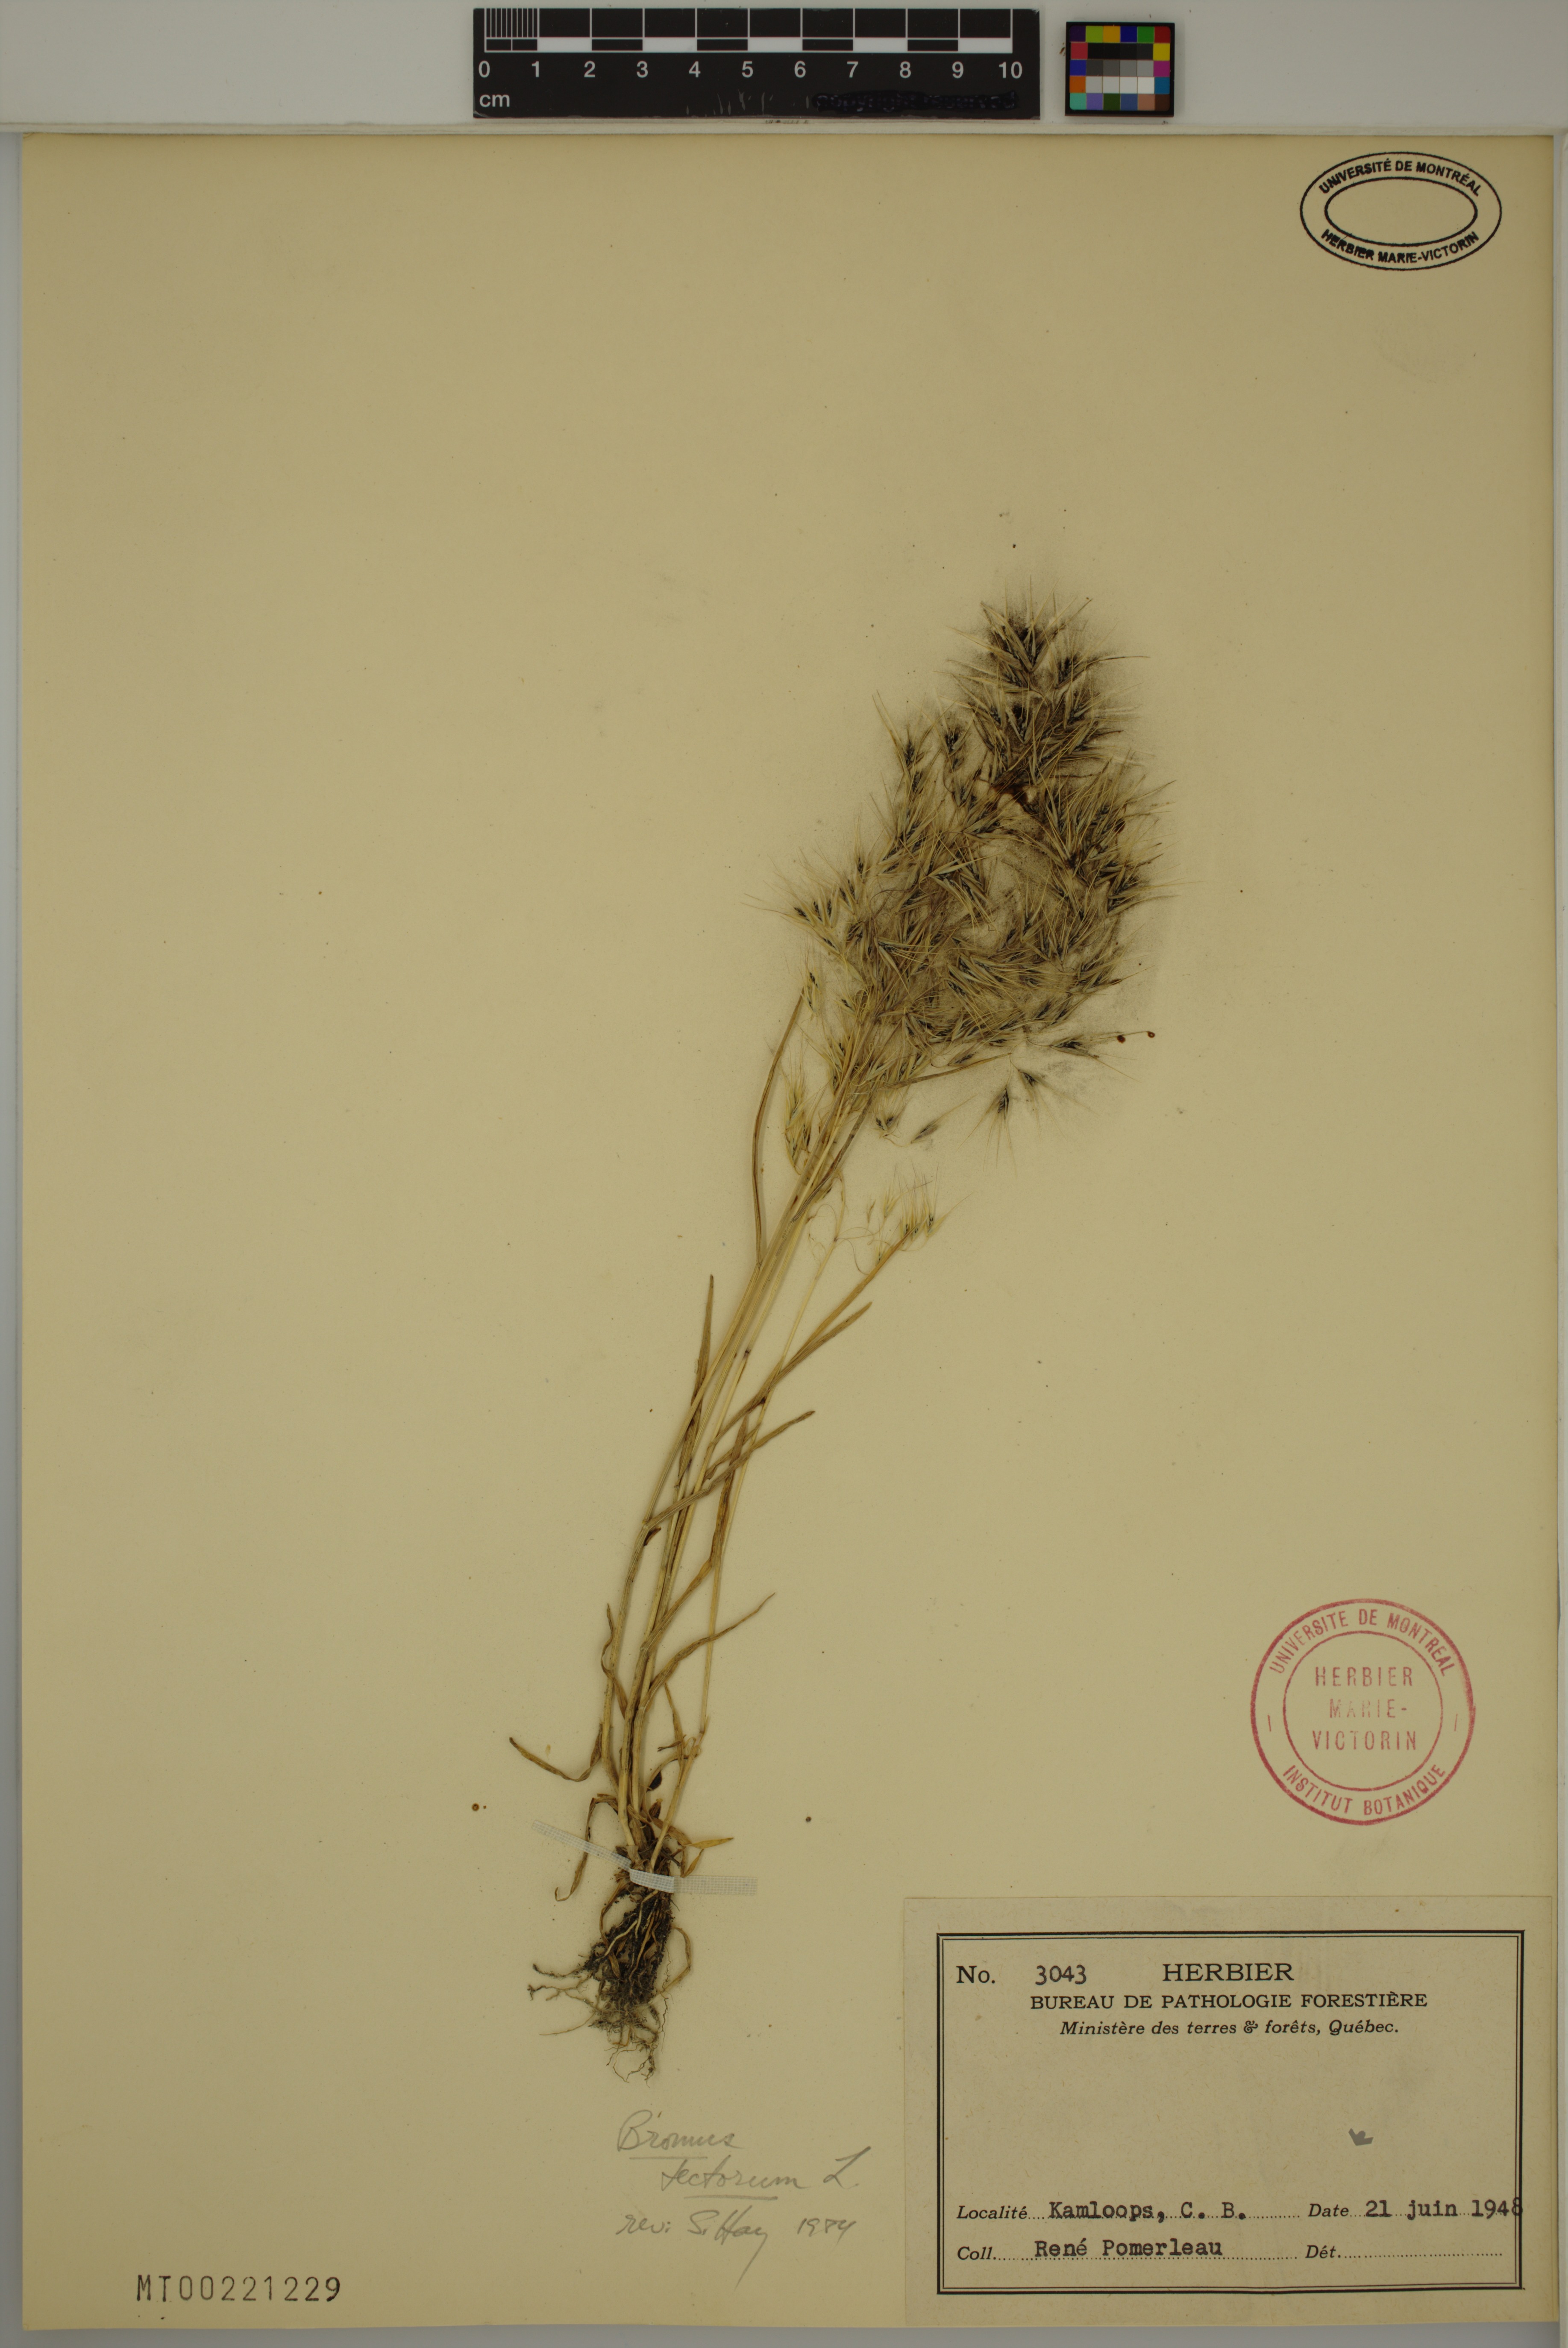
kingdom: Plantae
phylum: Tracheophyta
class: Liliopsida
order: Poales
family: Poaceae
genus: Bromus
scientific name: Bromus tectorum
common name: Cheatgrass
